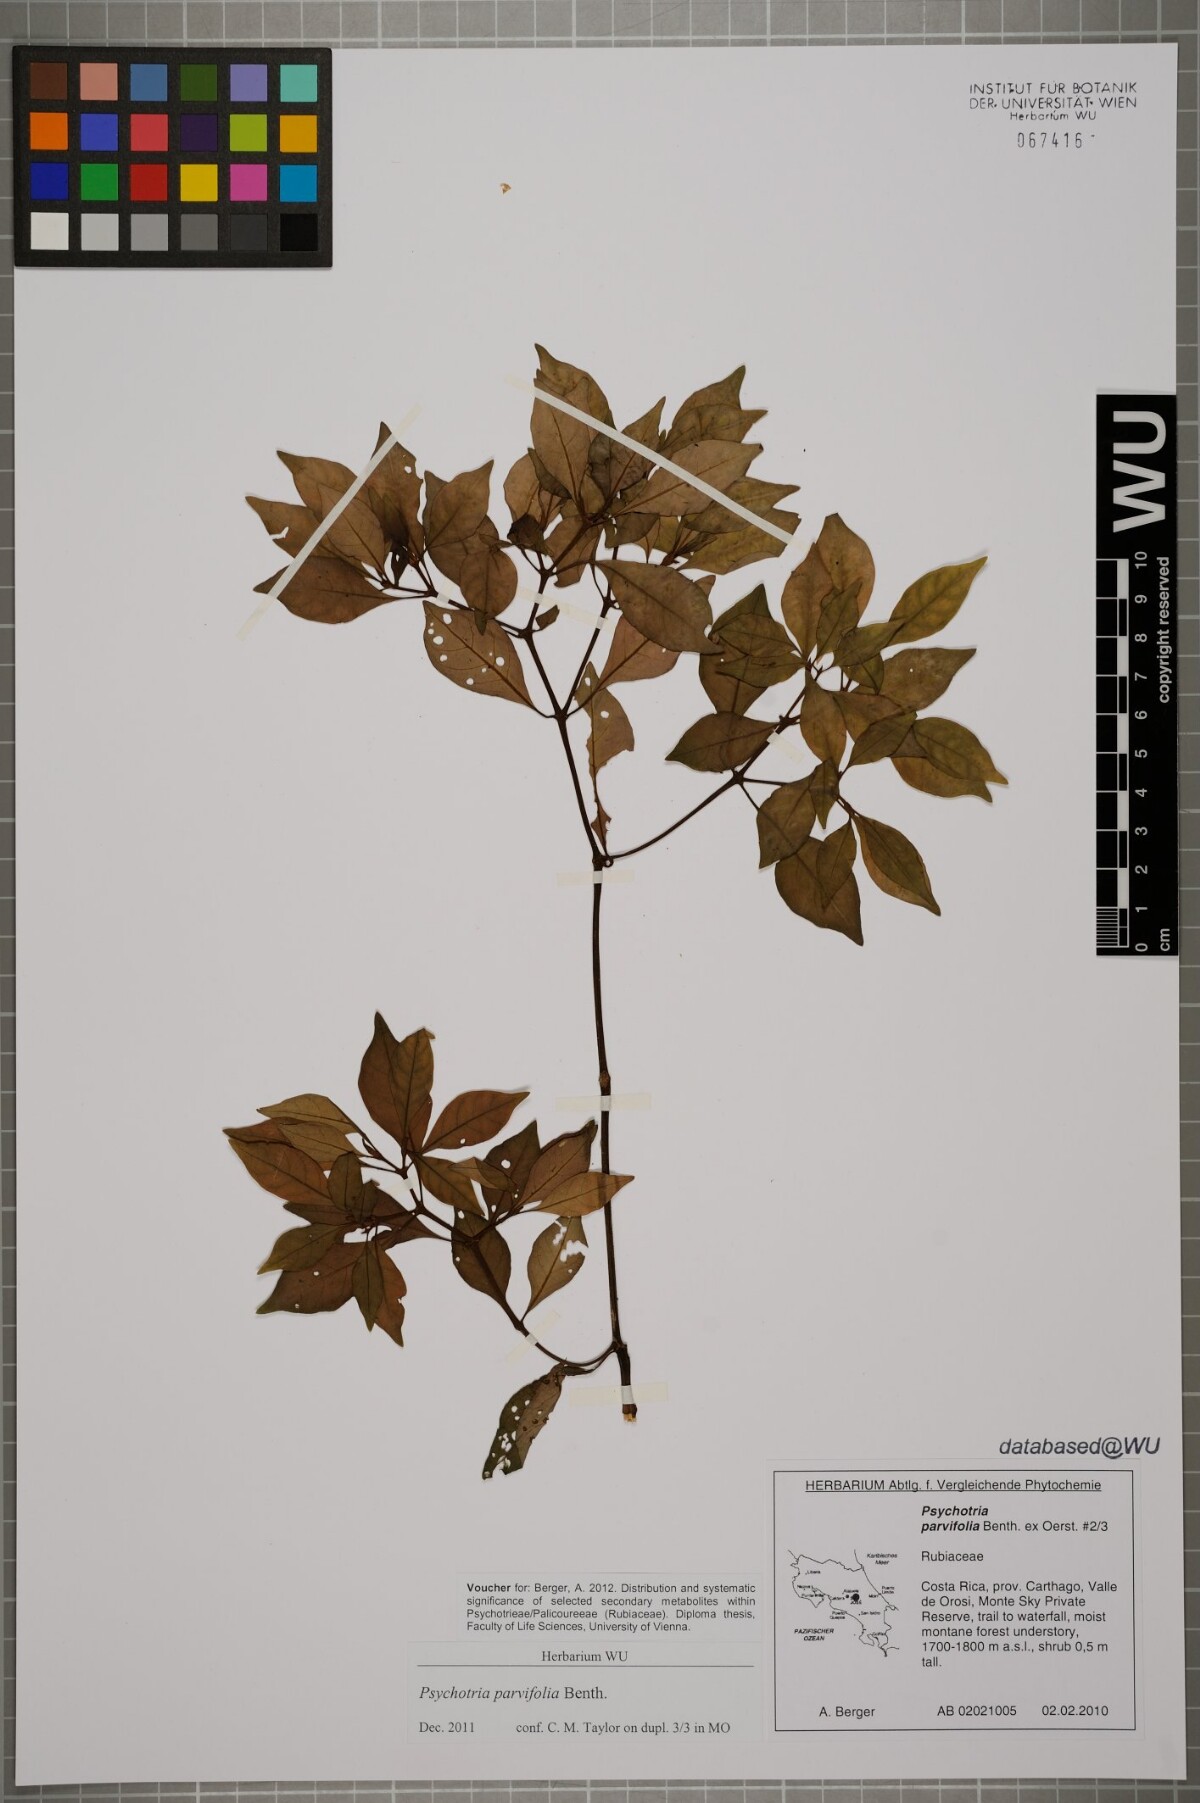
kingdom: Plantae
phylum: Tracheophyta
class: Magnoliopsida
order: Gentianales
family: Rubiaceae
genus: Psychotria
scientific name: Psychotria parvifolia
